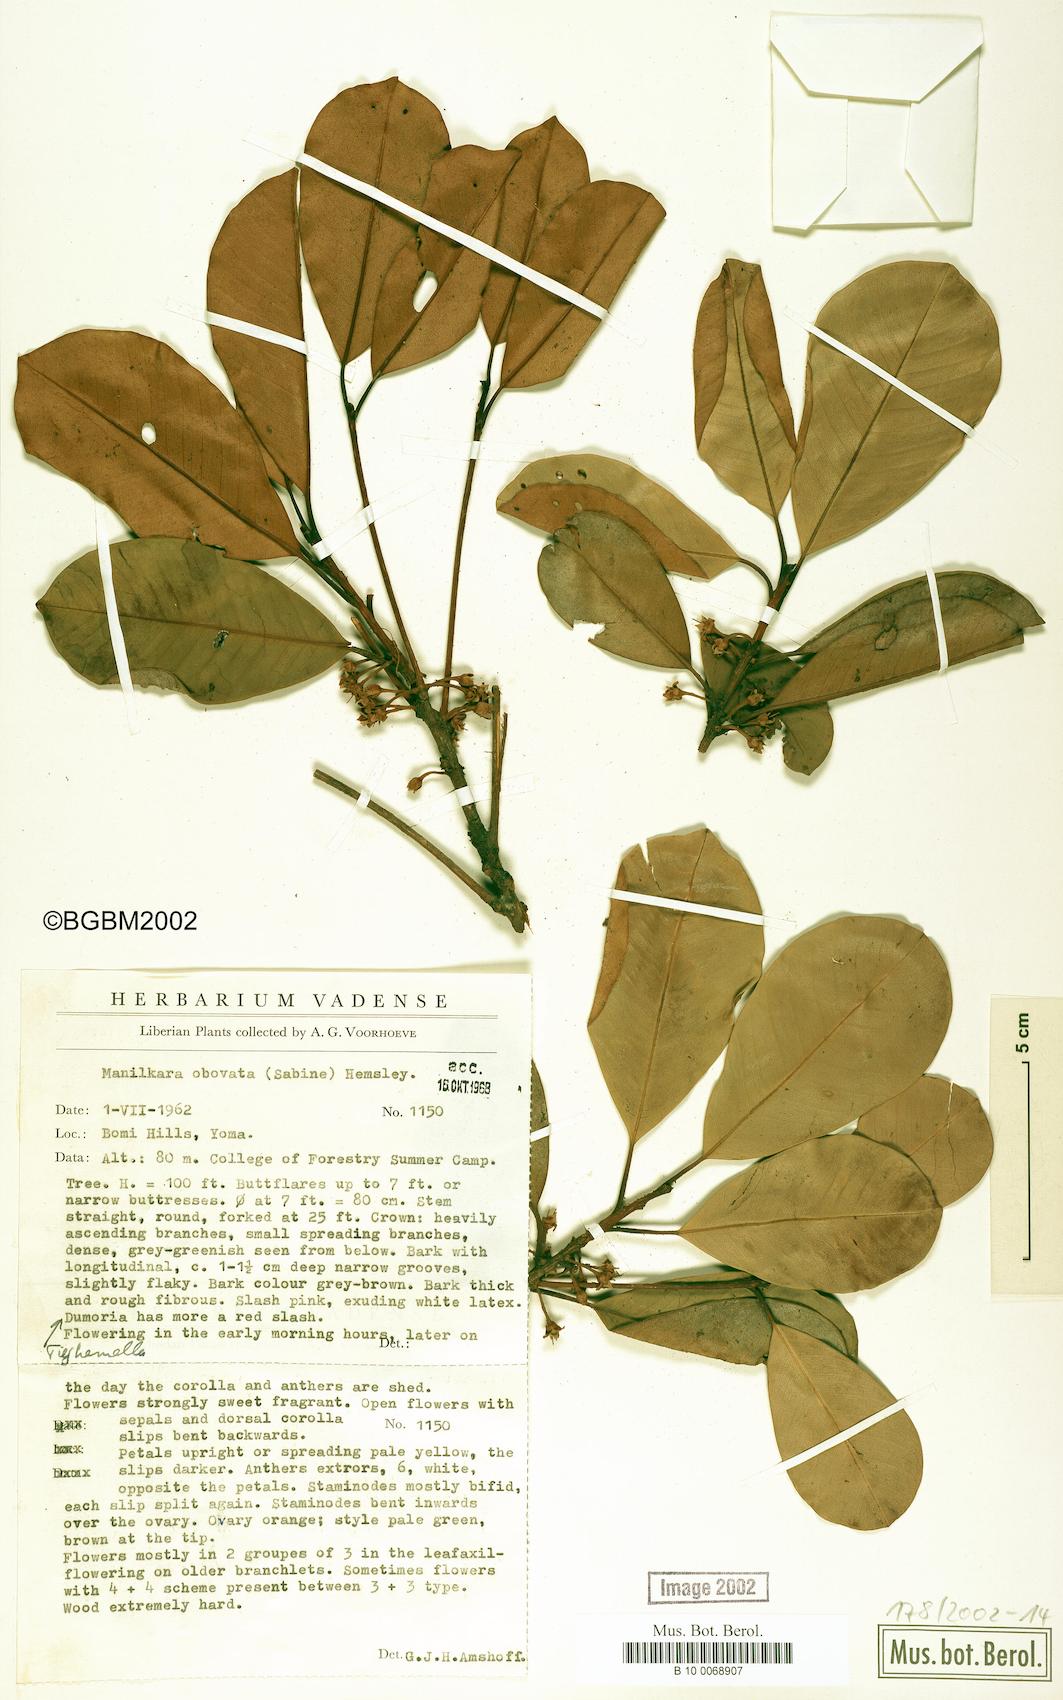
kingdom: Plantae
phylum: Tracheophyta
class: Magnoliopsida
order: Ericales
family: Sapotaceae
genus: Manilkara
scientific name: Manilkara obovata
